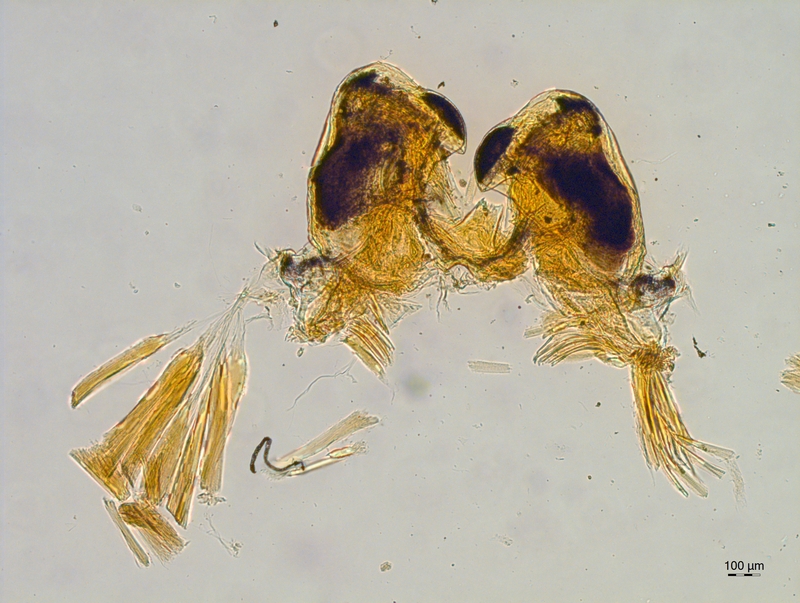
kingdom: Animalia
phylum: Arthropoda
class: Diplopoda
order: Chordeumatida
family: Attemsiidae
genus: Attemsia
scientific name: Attemsia stygia
